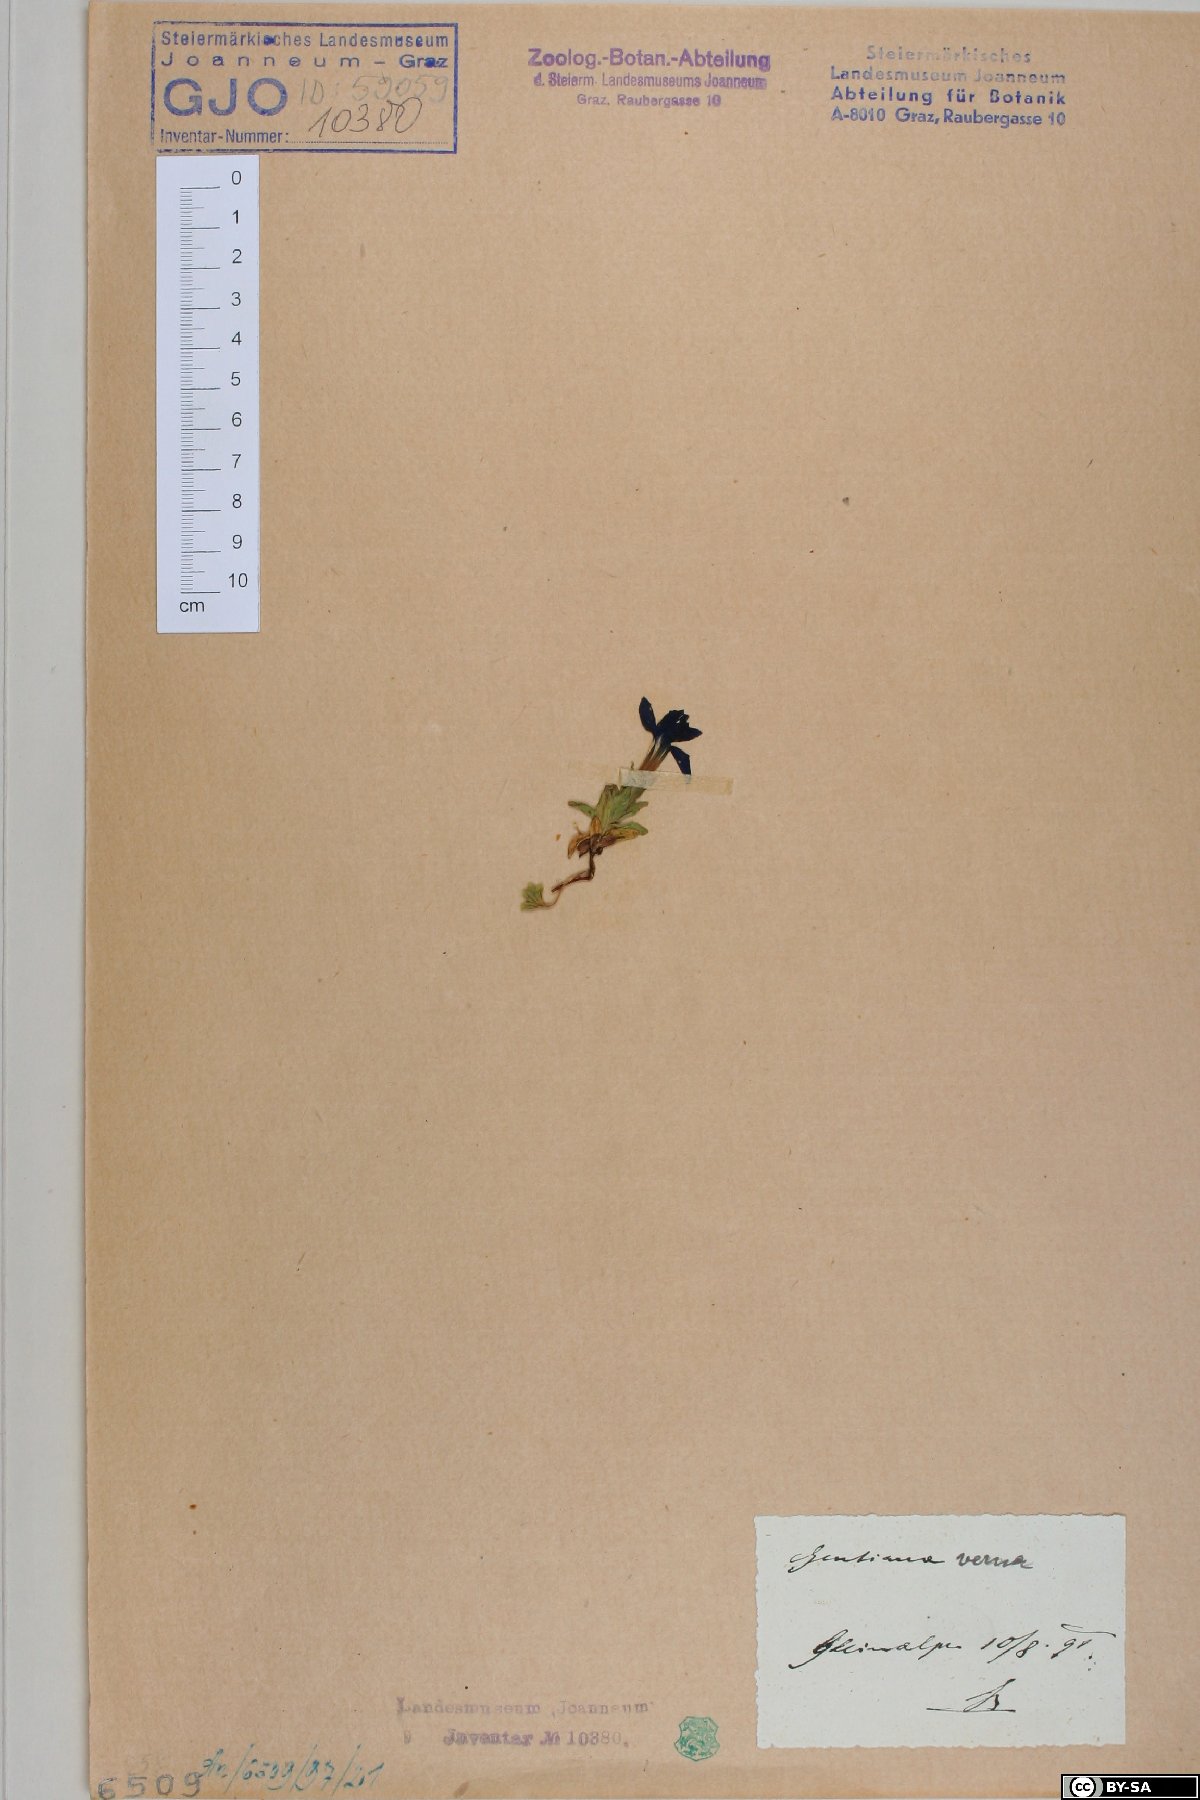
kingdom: Plantae
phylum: Tracheophyta
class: Magnoliopsida
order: Gentianales
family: Gentianaceae
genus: Gentiana
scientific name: Gentiana verna
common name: Spring gentian
